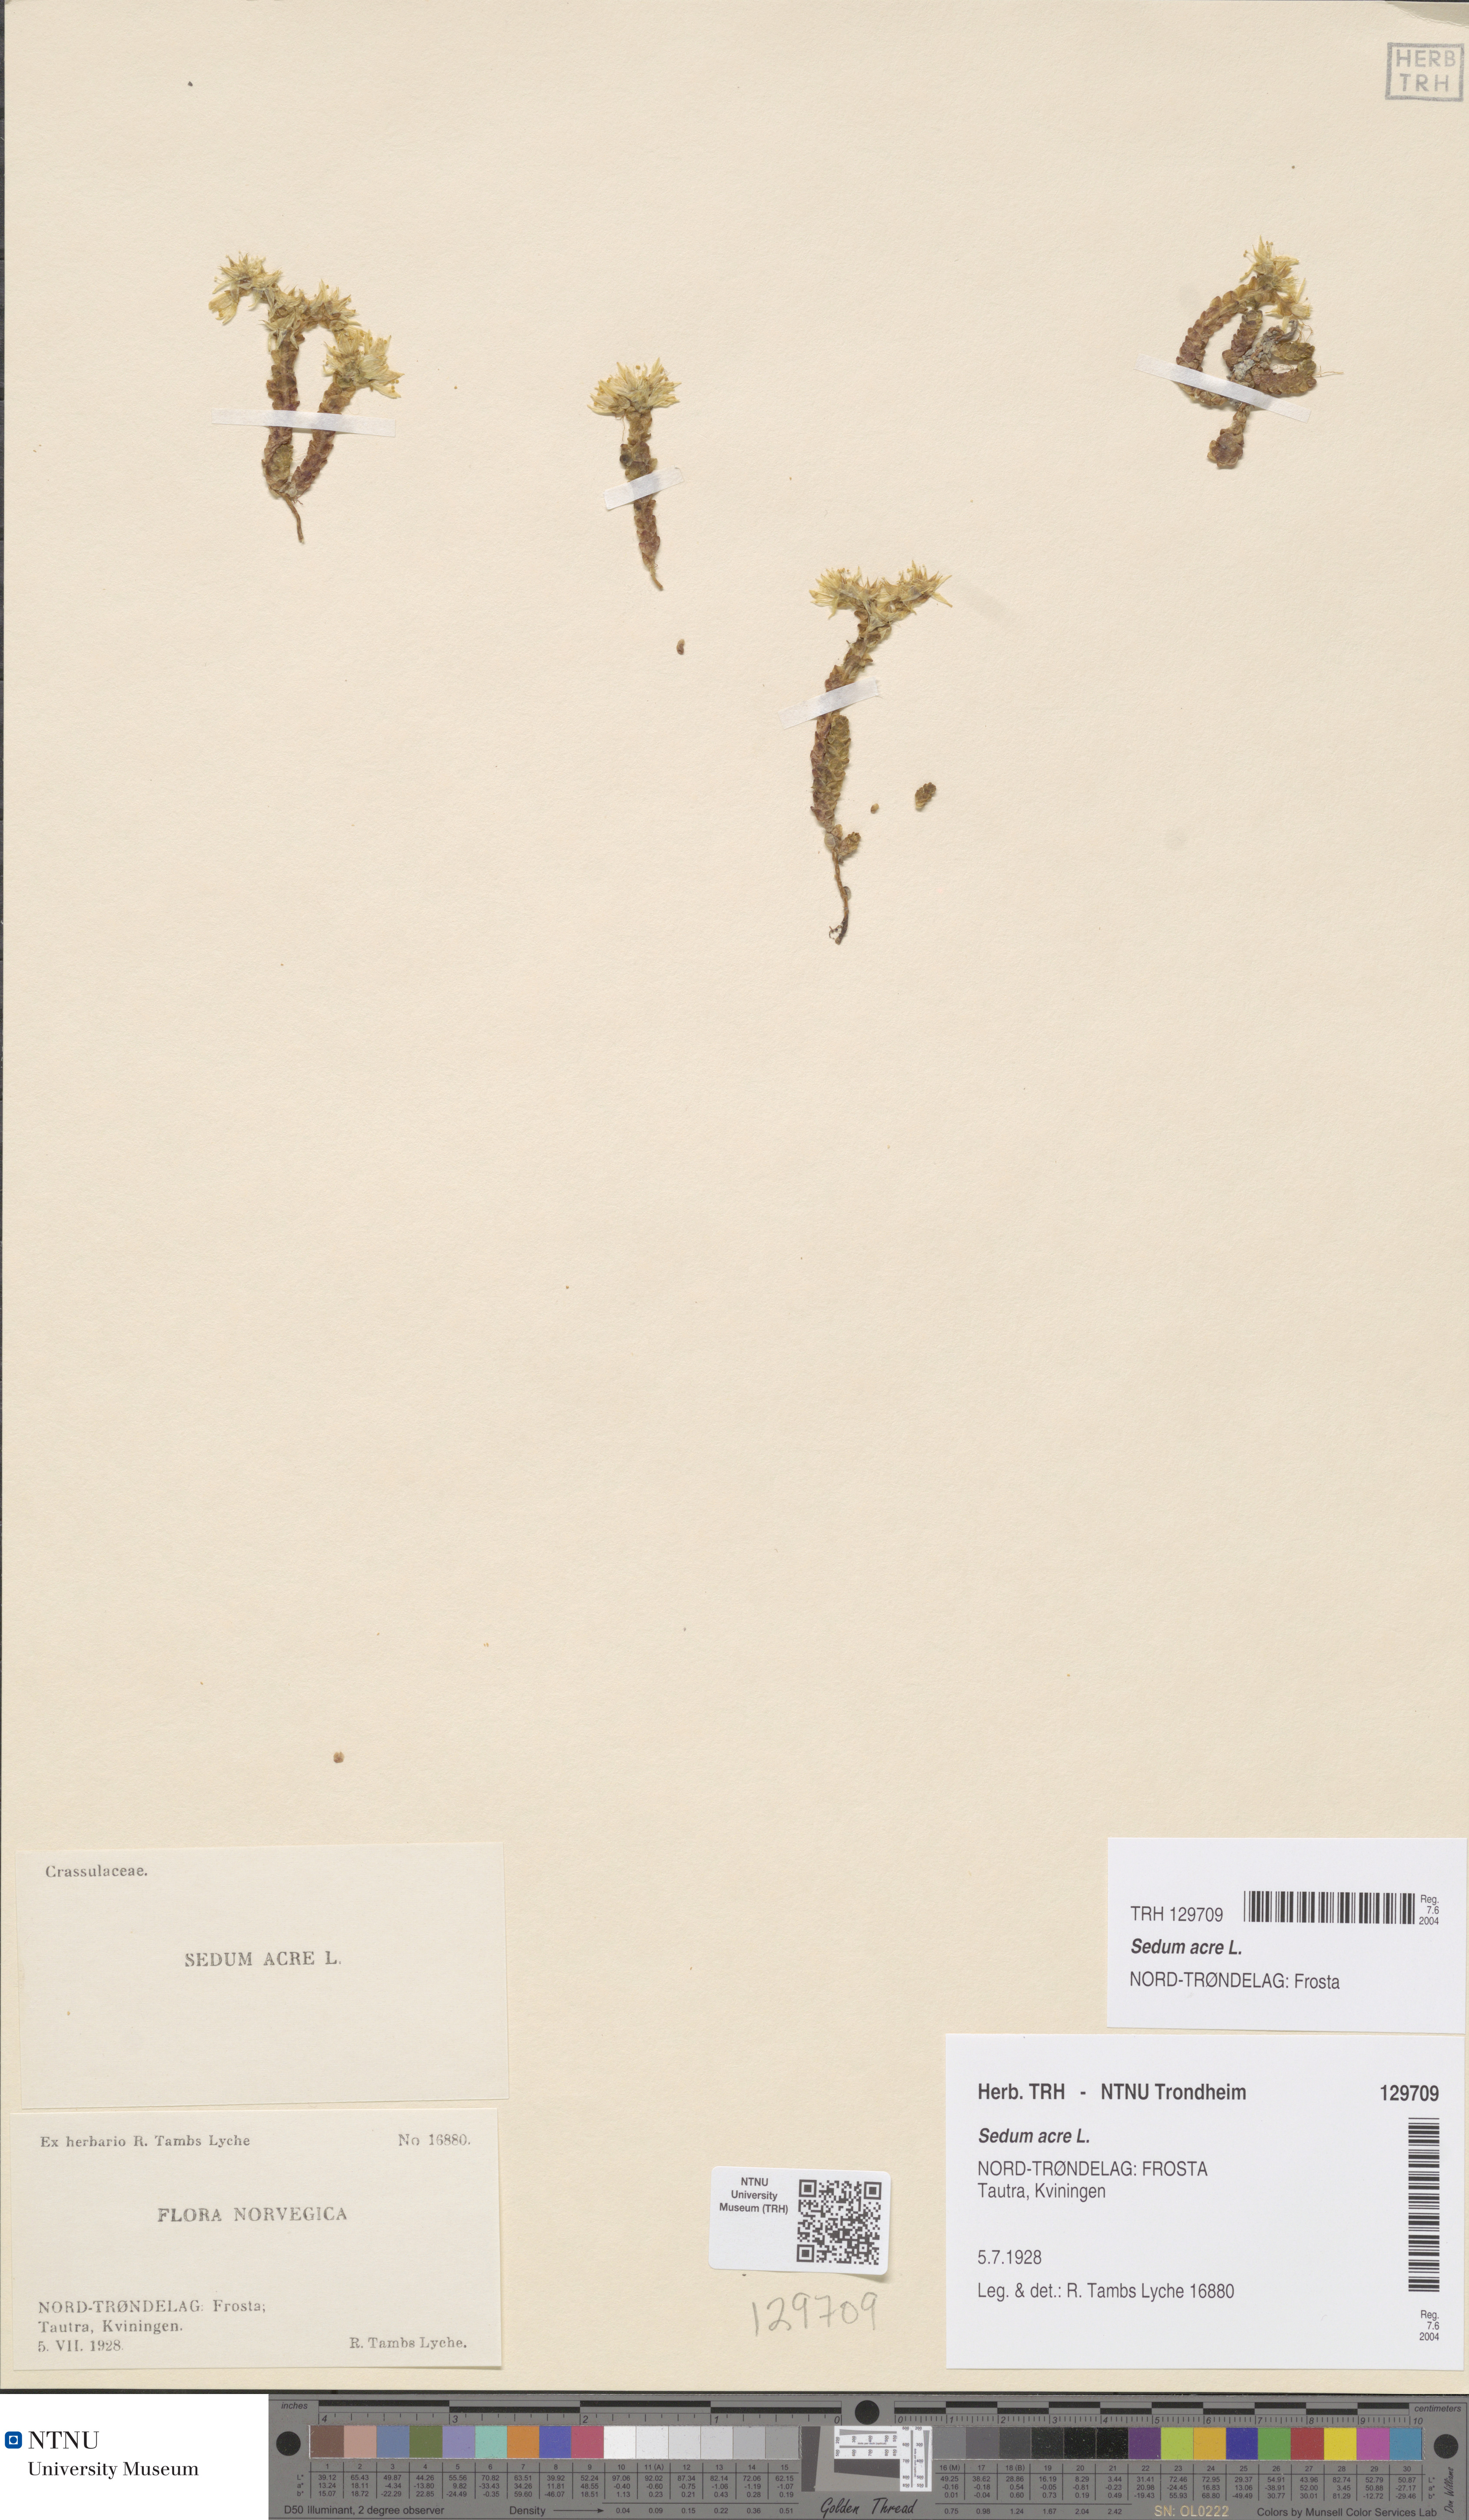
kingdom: Plantae
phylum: Tracheophyta
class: Magnoliopsida
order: Saxifragales
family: Crassulaceae
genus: Sedum
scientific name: Sedum acre
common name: Biting stonecrop
